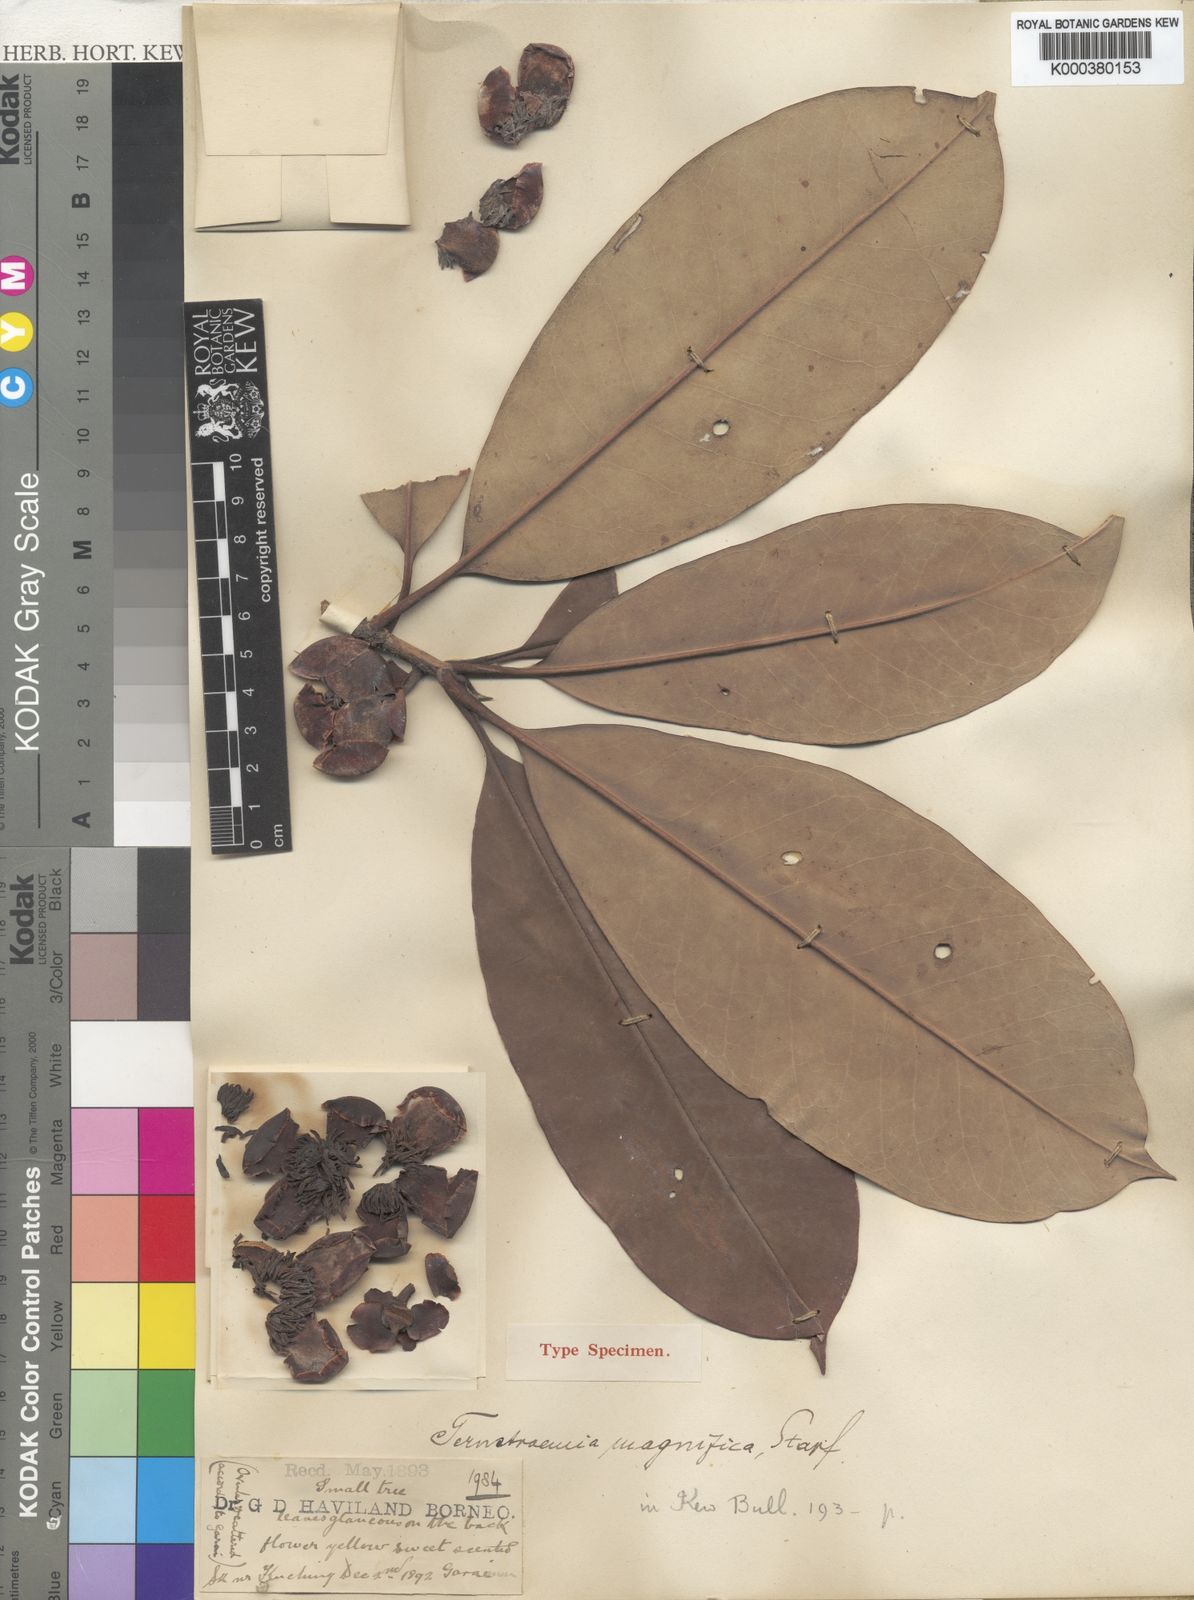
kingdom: Plantae
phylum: Tracheophyta
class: Magnoliopsida
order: Ericales
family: Pentaphylacaceae
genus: Ternstroemia
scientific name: Ternstroemia magnifica
